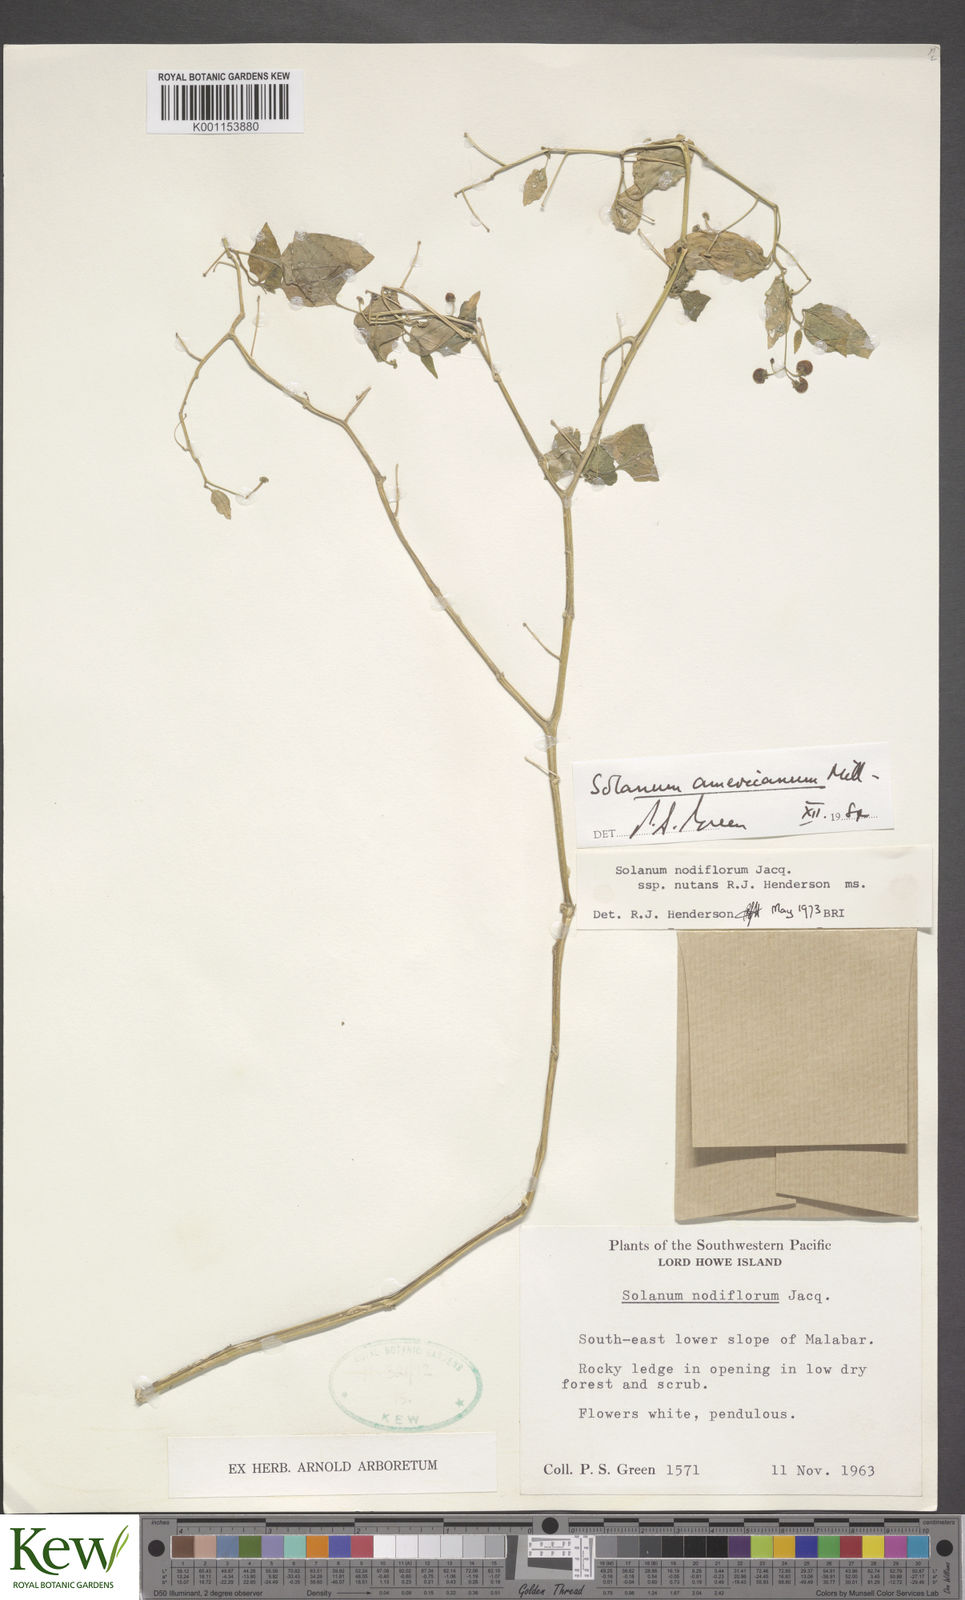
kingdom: Plantae
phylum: Tracheophyta
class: Magnoliopsida
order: Solanales
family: Solanaceae
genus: Solanum
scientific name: Solanum americanum
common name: American black nightshade
